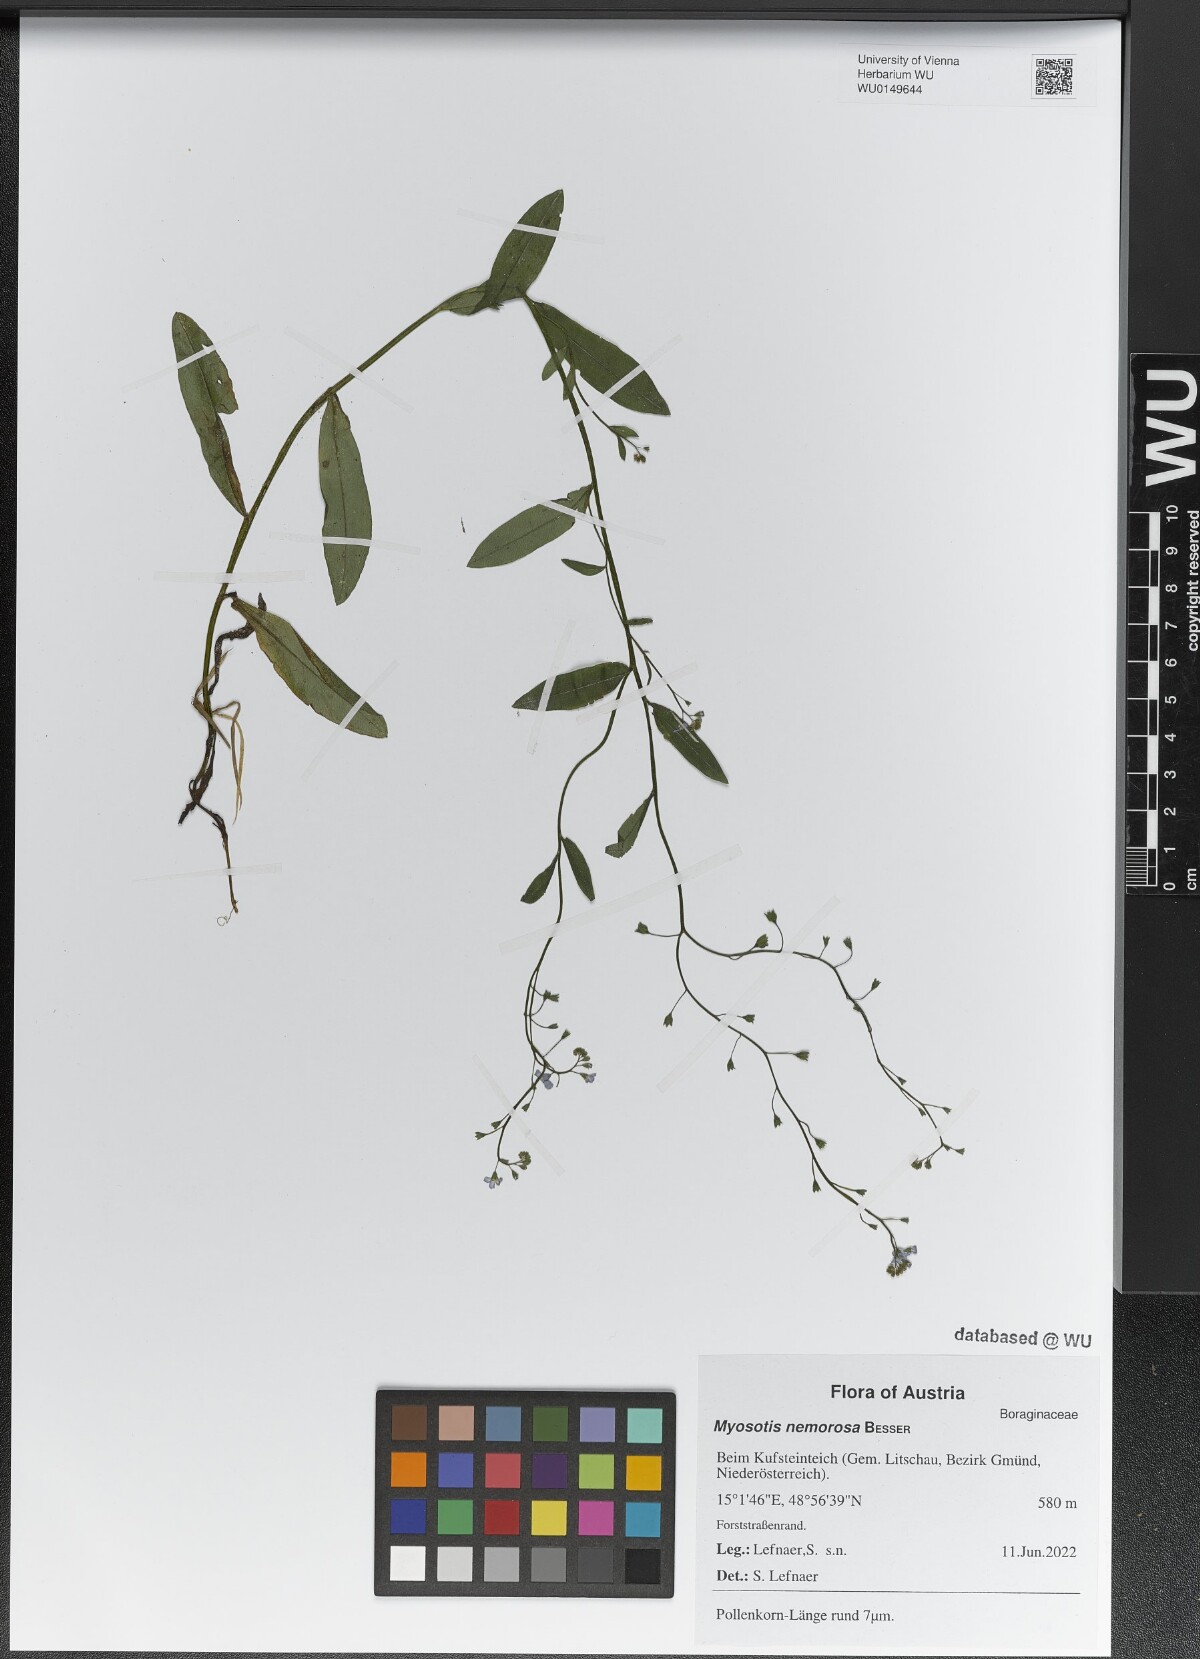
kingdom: Plantae
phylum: Tracheophyta
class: Magnoliopsida
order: Boraginales
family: Boraginaceae
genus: Myosotis
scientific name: Myosotis nemorosa
